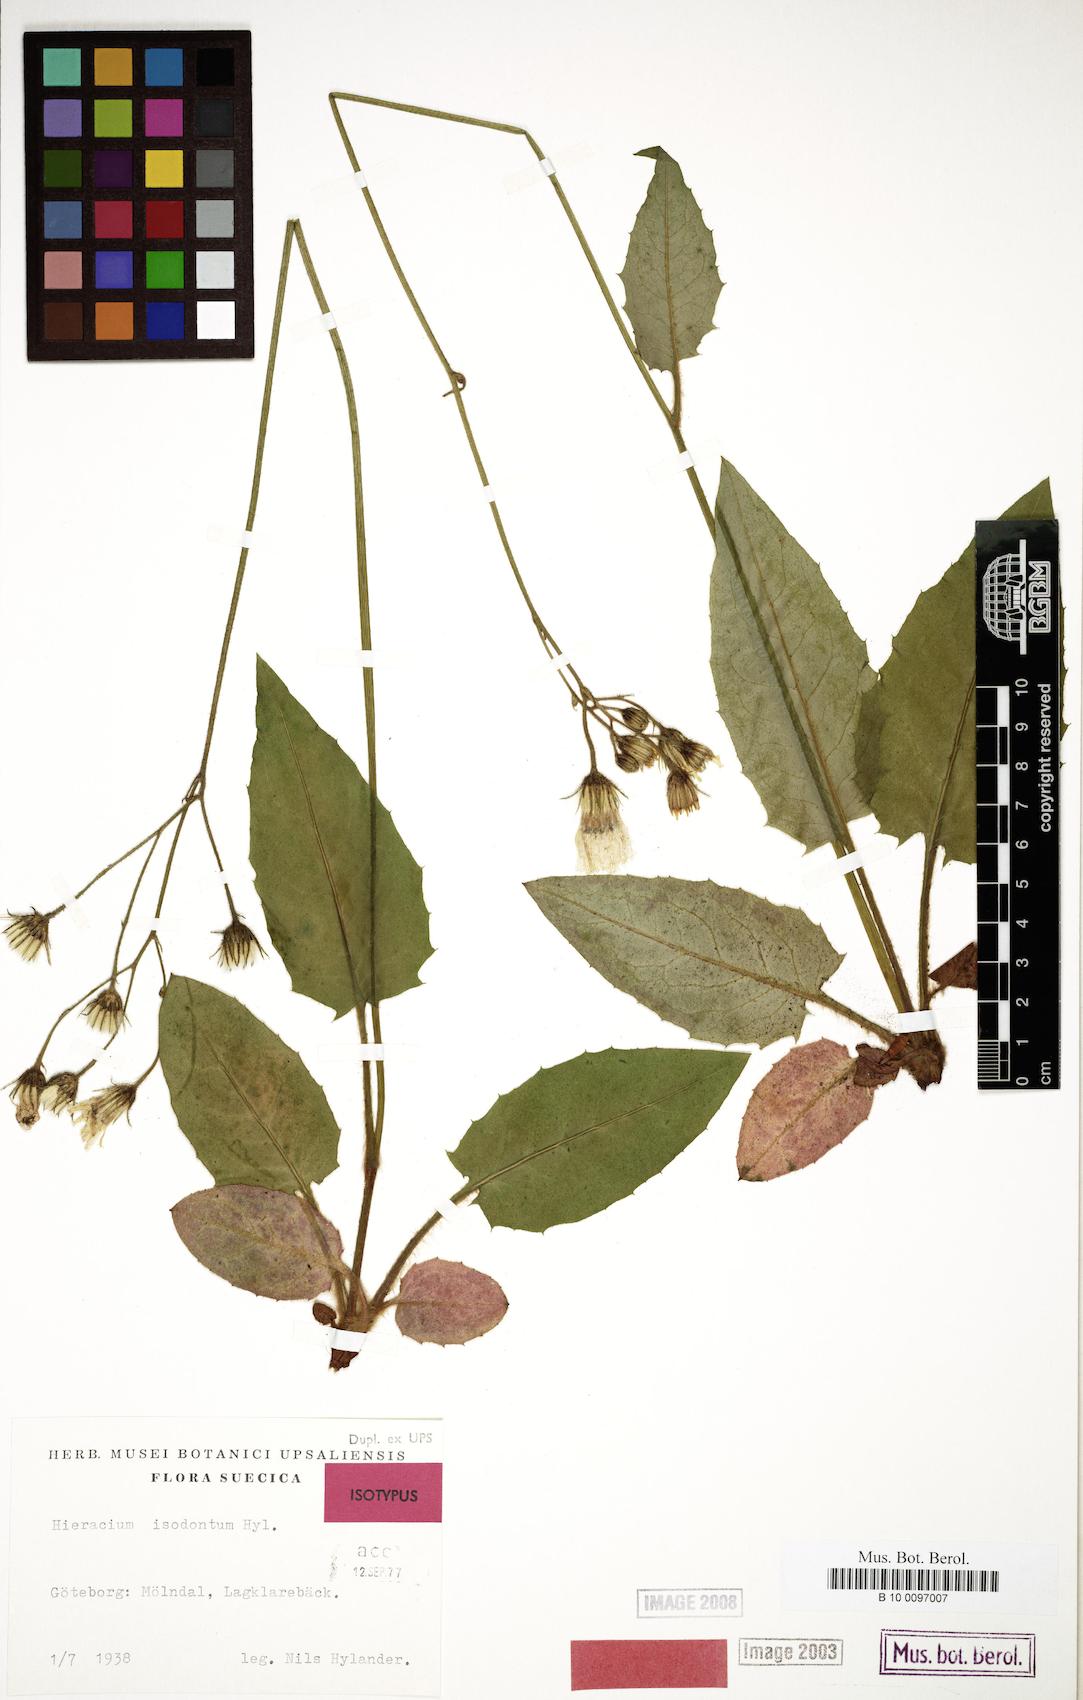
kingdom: Plantae
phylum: Tracheophyta
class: Magnoliopsida
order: Asterales
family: Asteraceae
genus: Hieracium
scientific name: Hieracium murorum
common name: Wall hawkweed
